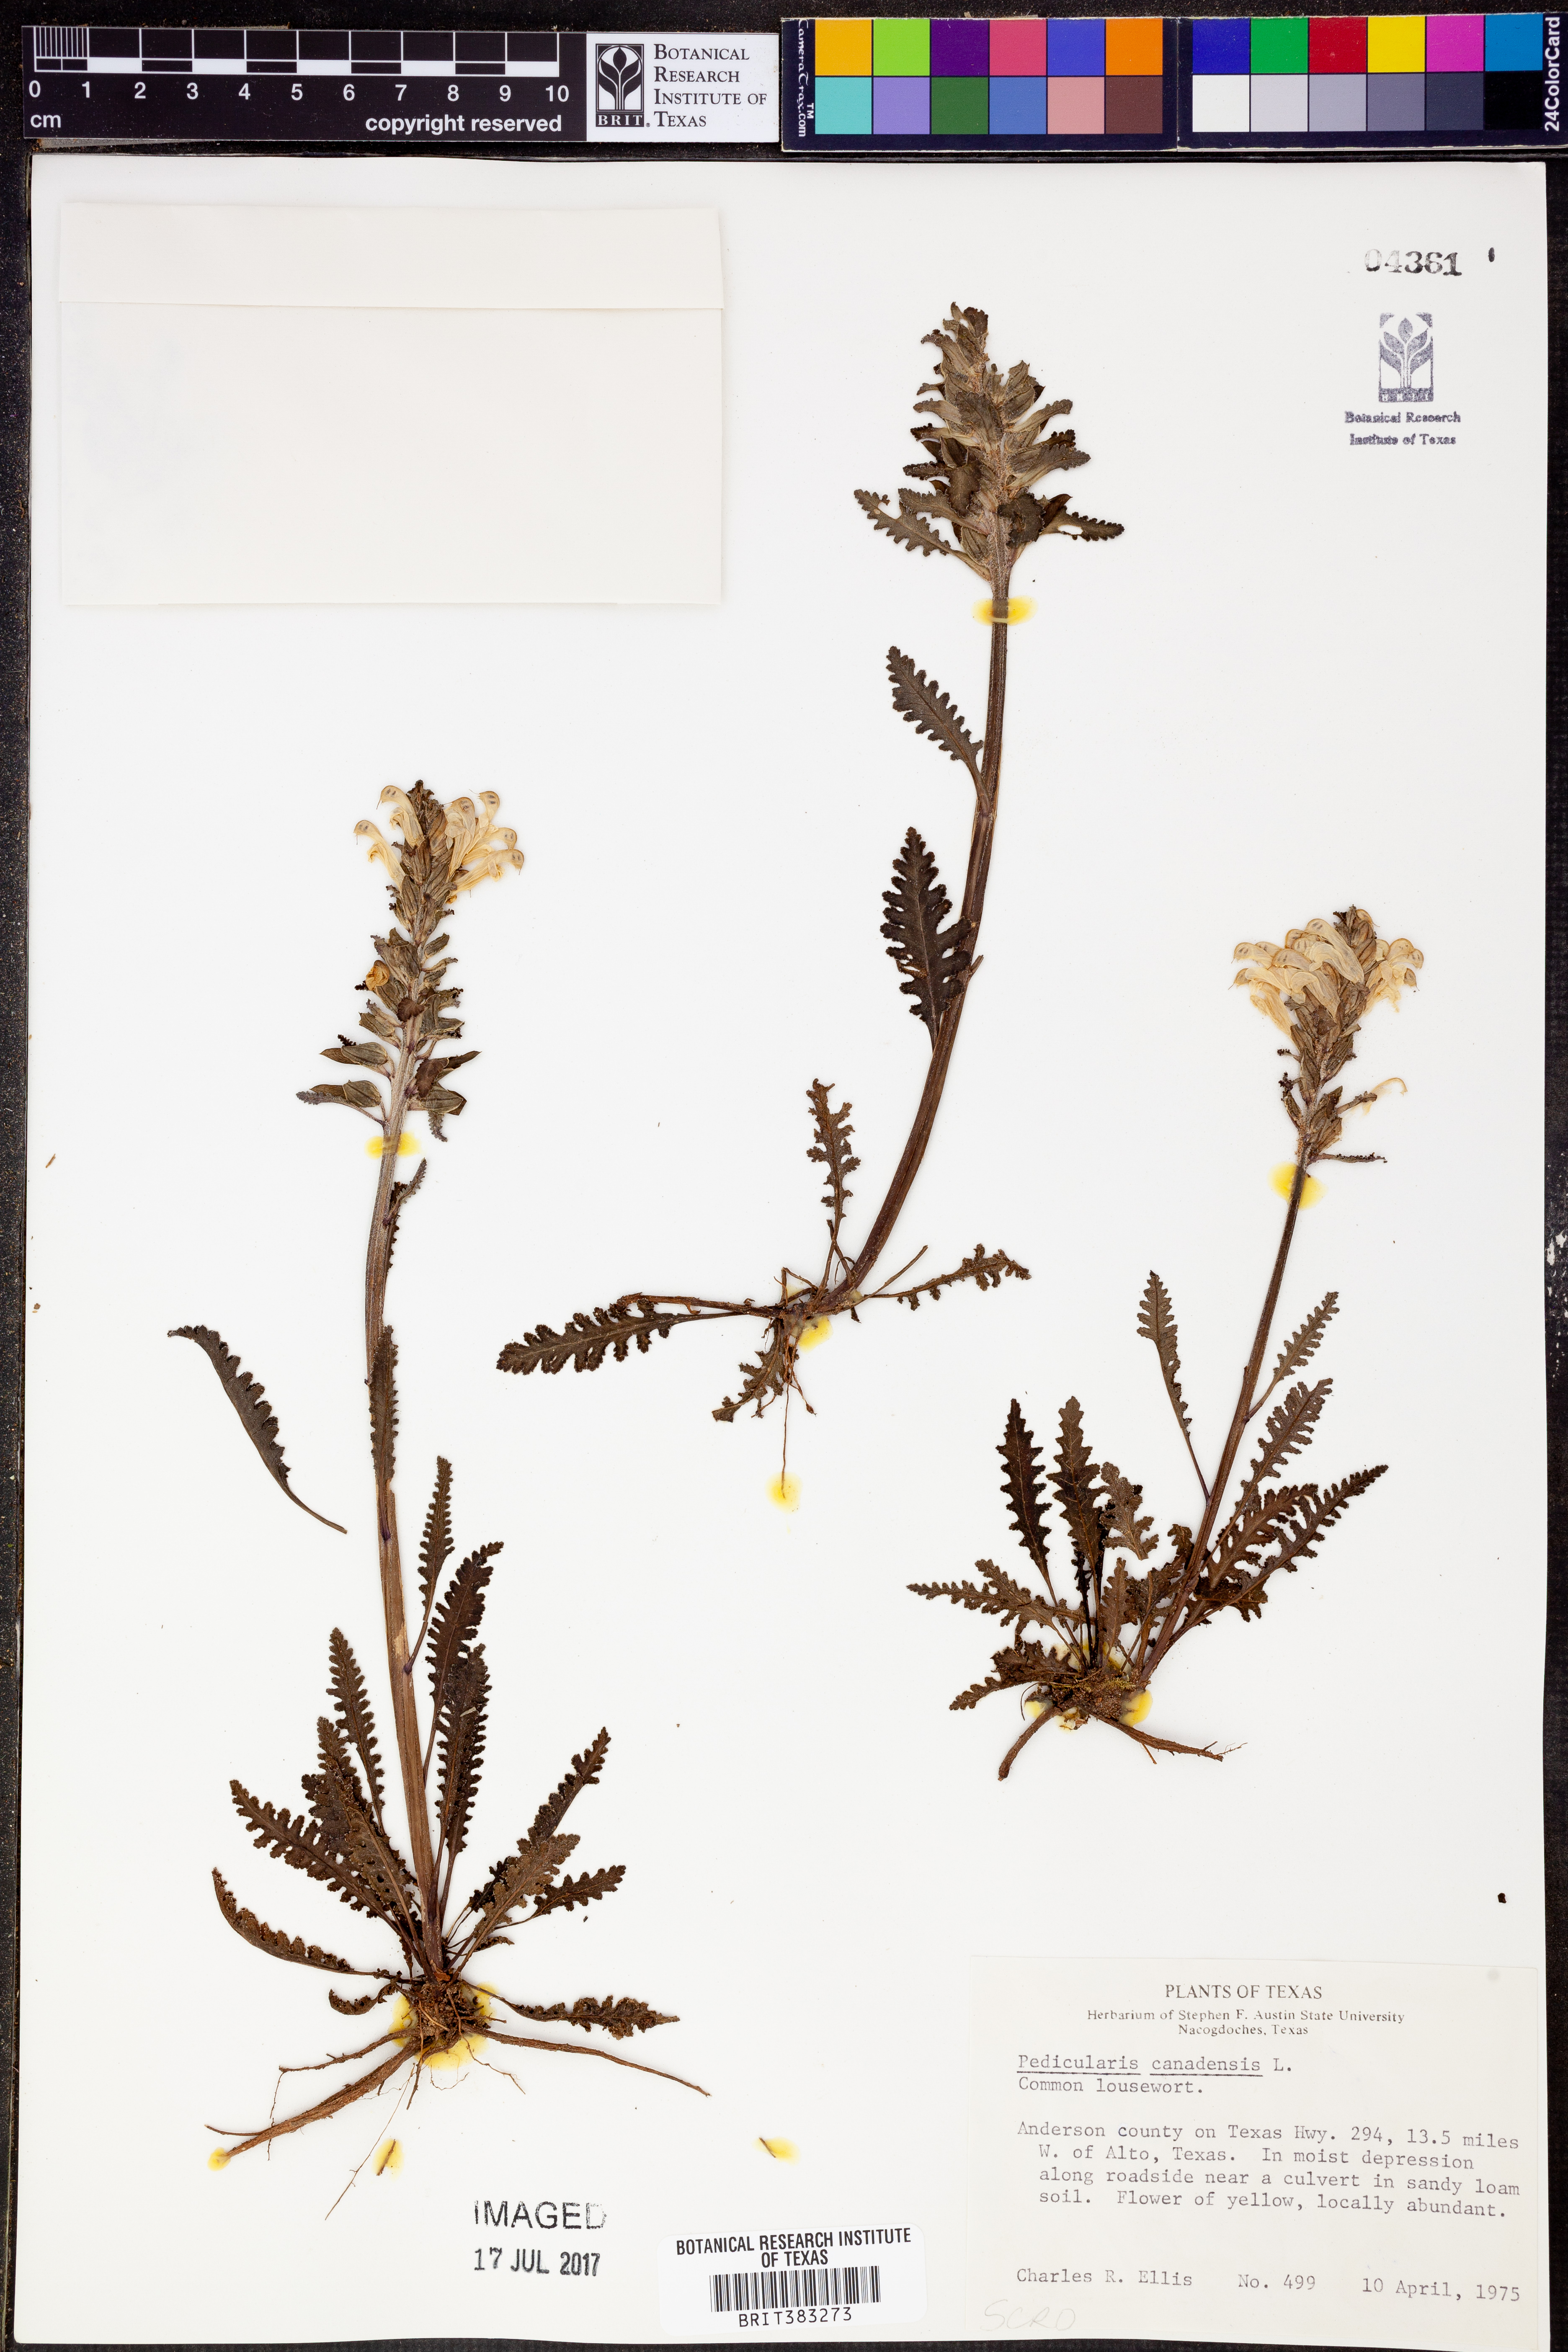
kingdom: Plantae
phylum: Tracheophyta
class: Magnoliopsida
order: Lamiales
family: Orobanchaceae
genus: Pedicularis
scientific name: Pedicularis canadensis
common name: Early lousewort
